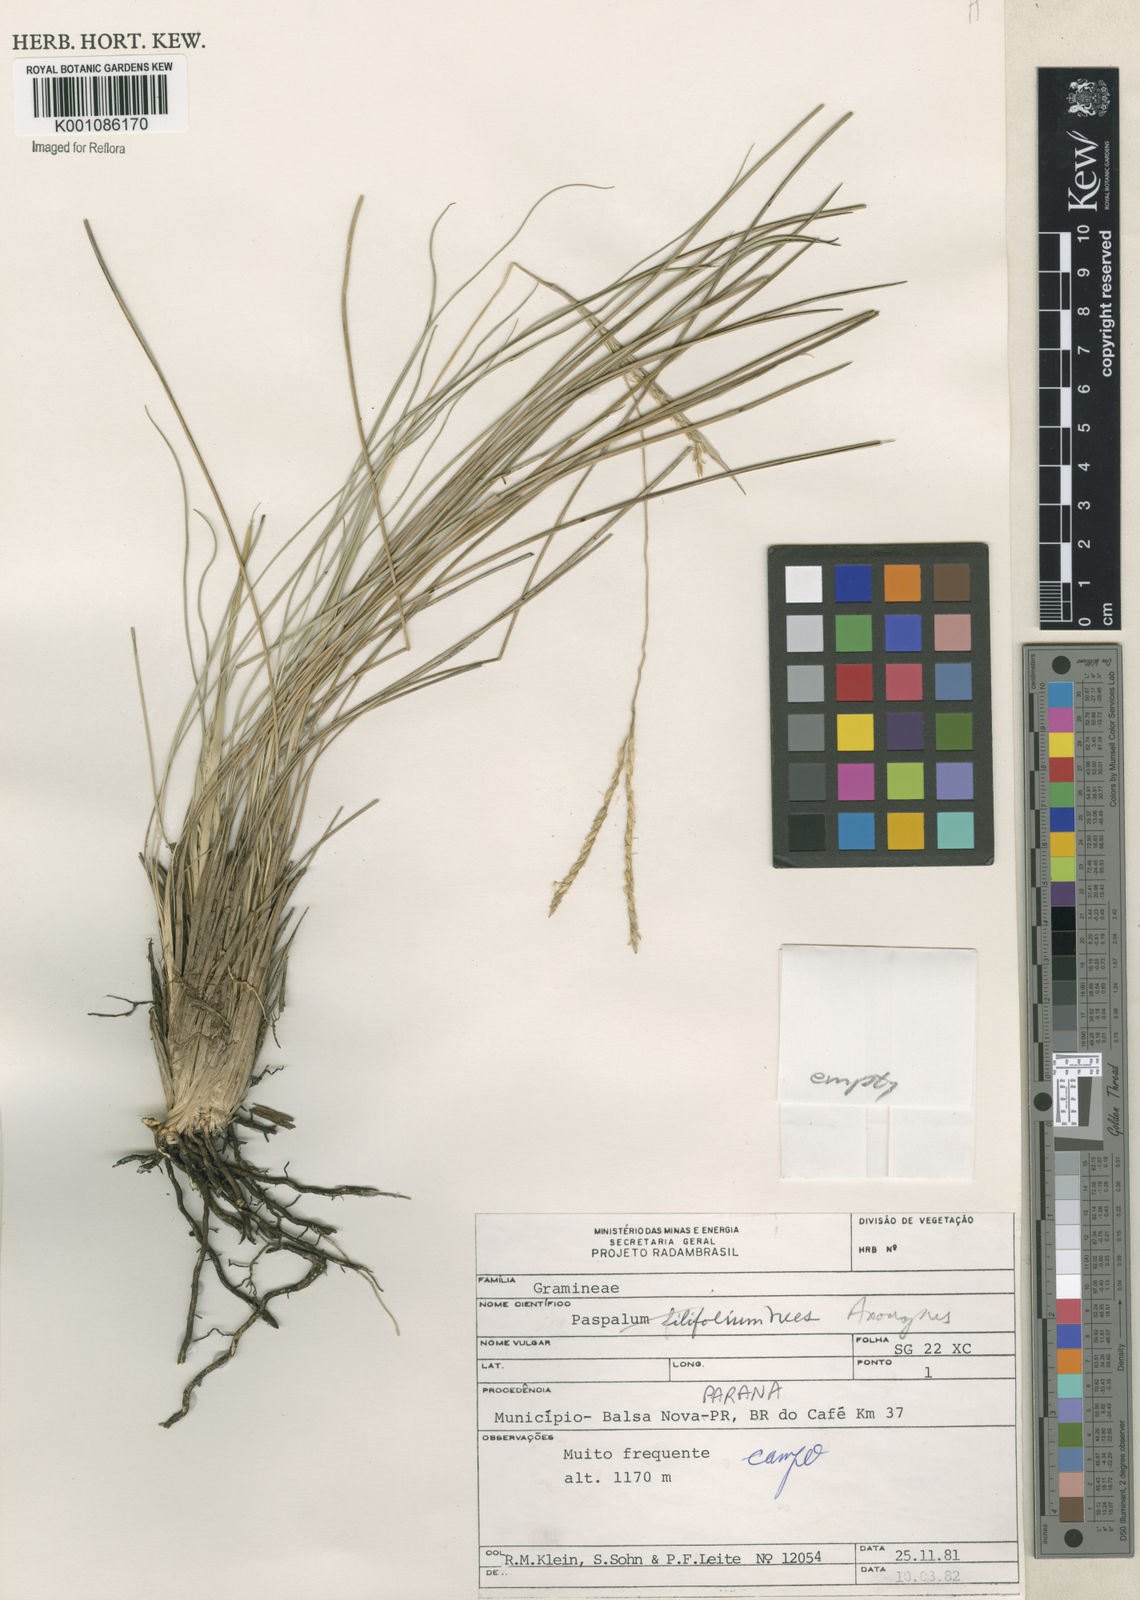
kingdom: Plantae
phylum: Tracheophyta
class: Liliopsida
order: Poales
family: Poaceae
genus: Axonopus
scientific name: Axonopus
